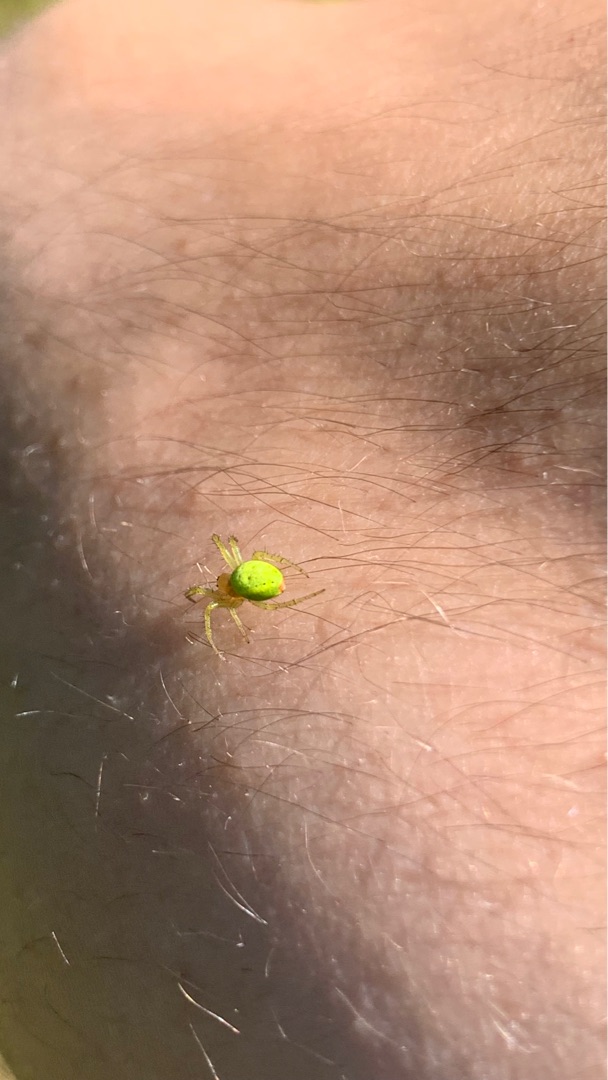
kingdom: Animalia
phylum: Arthropoda
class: Arachnida
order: Araneae
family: Araneidae
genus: Araniella
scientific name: Araniella
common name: Agurkeedderkopslægten
